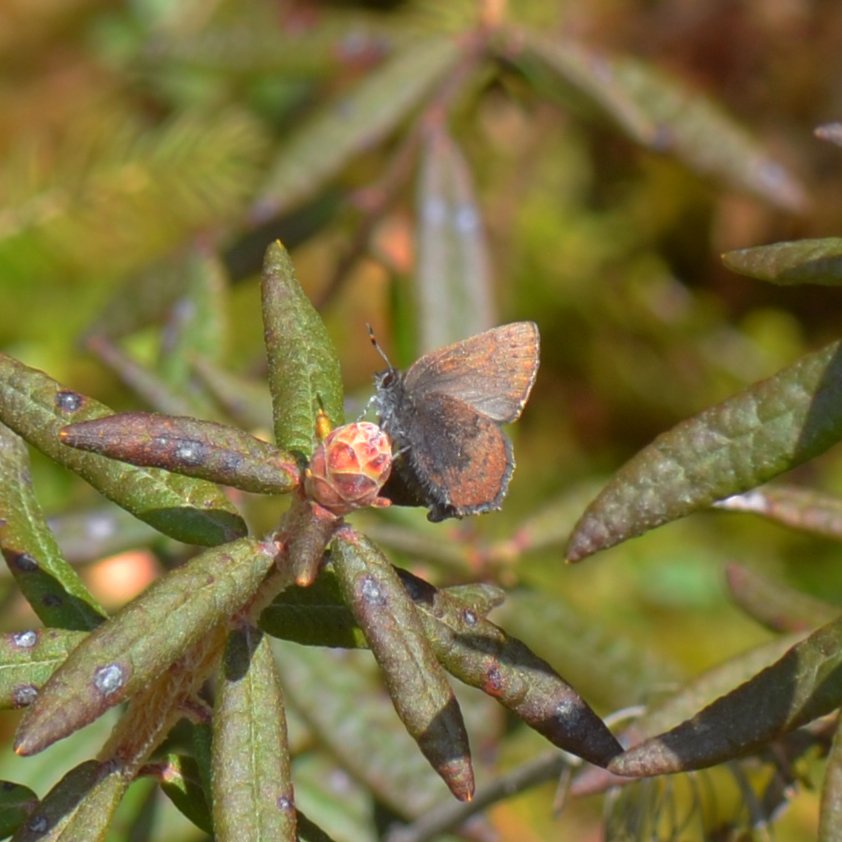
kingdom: Animalia
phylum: Arthropoda
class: Insecta
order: Lepidoptera
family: Lycaenidae
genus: Incisalia
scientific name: Incisalia irioides
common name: Brown Elfin
